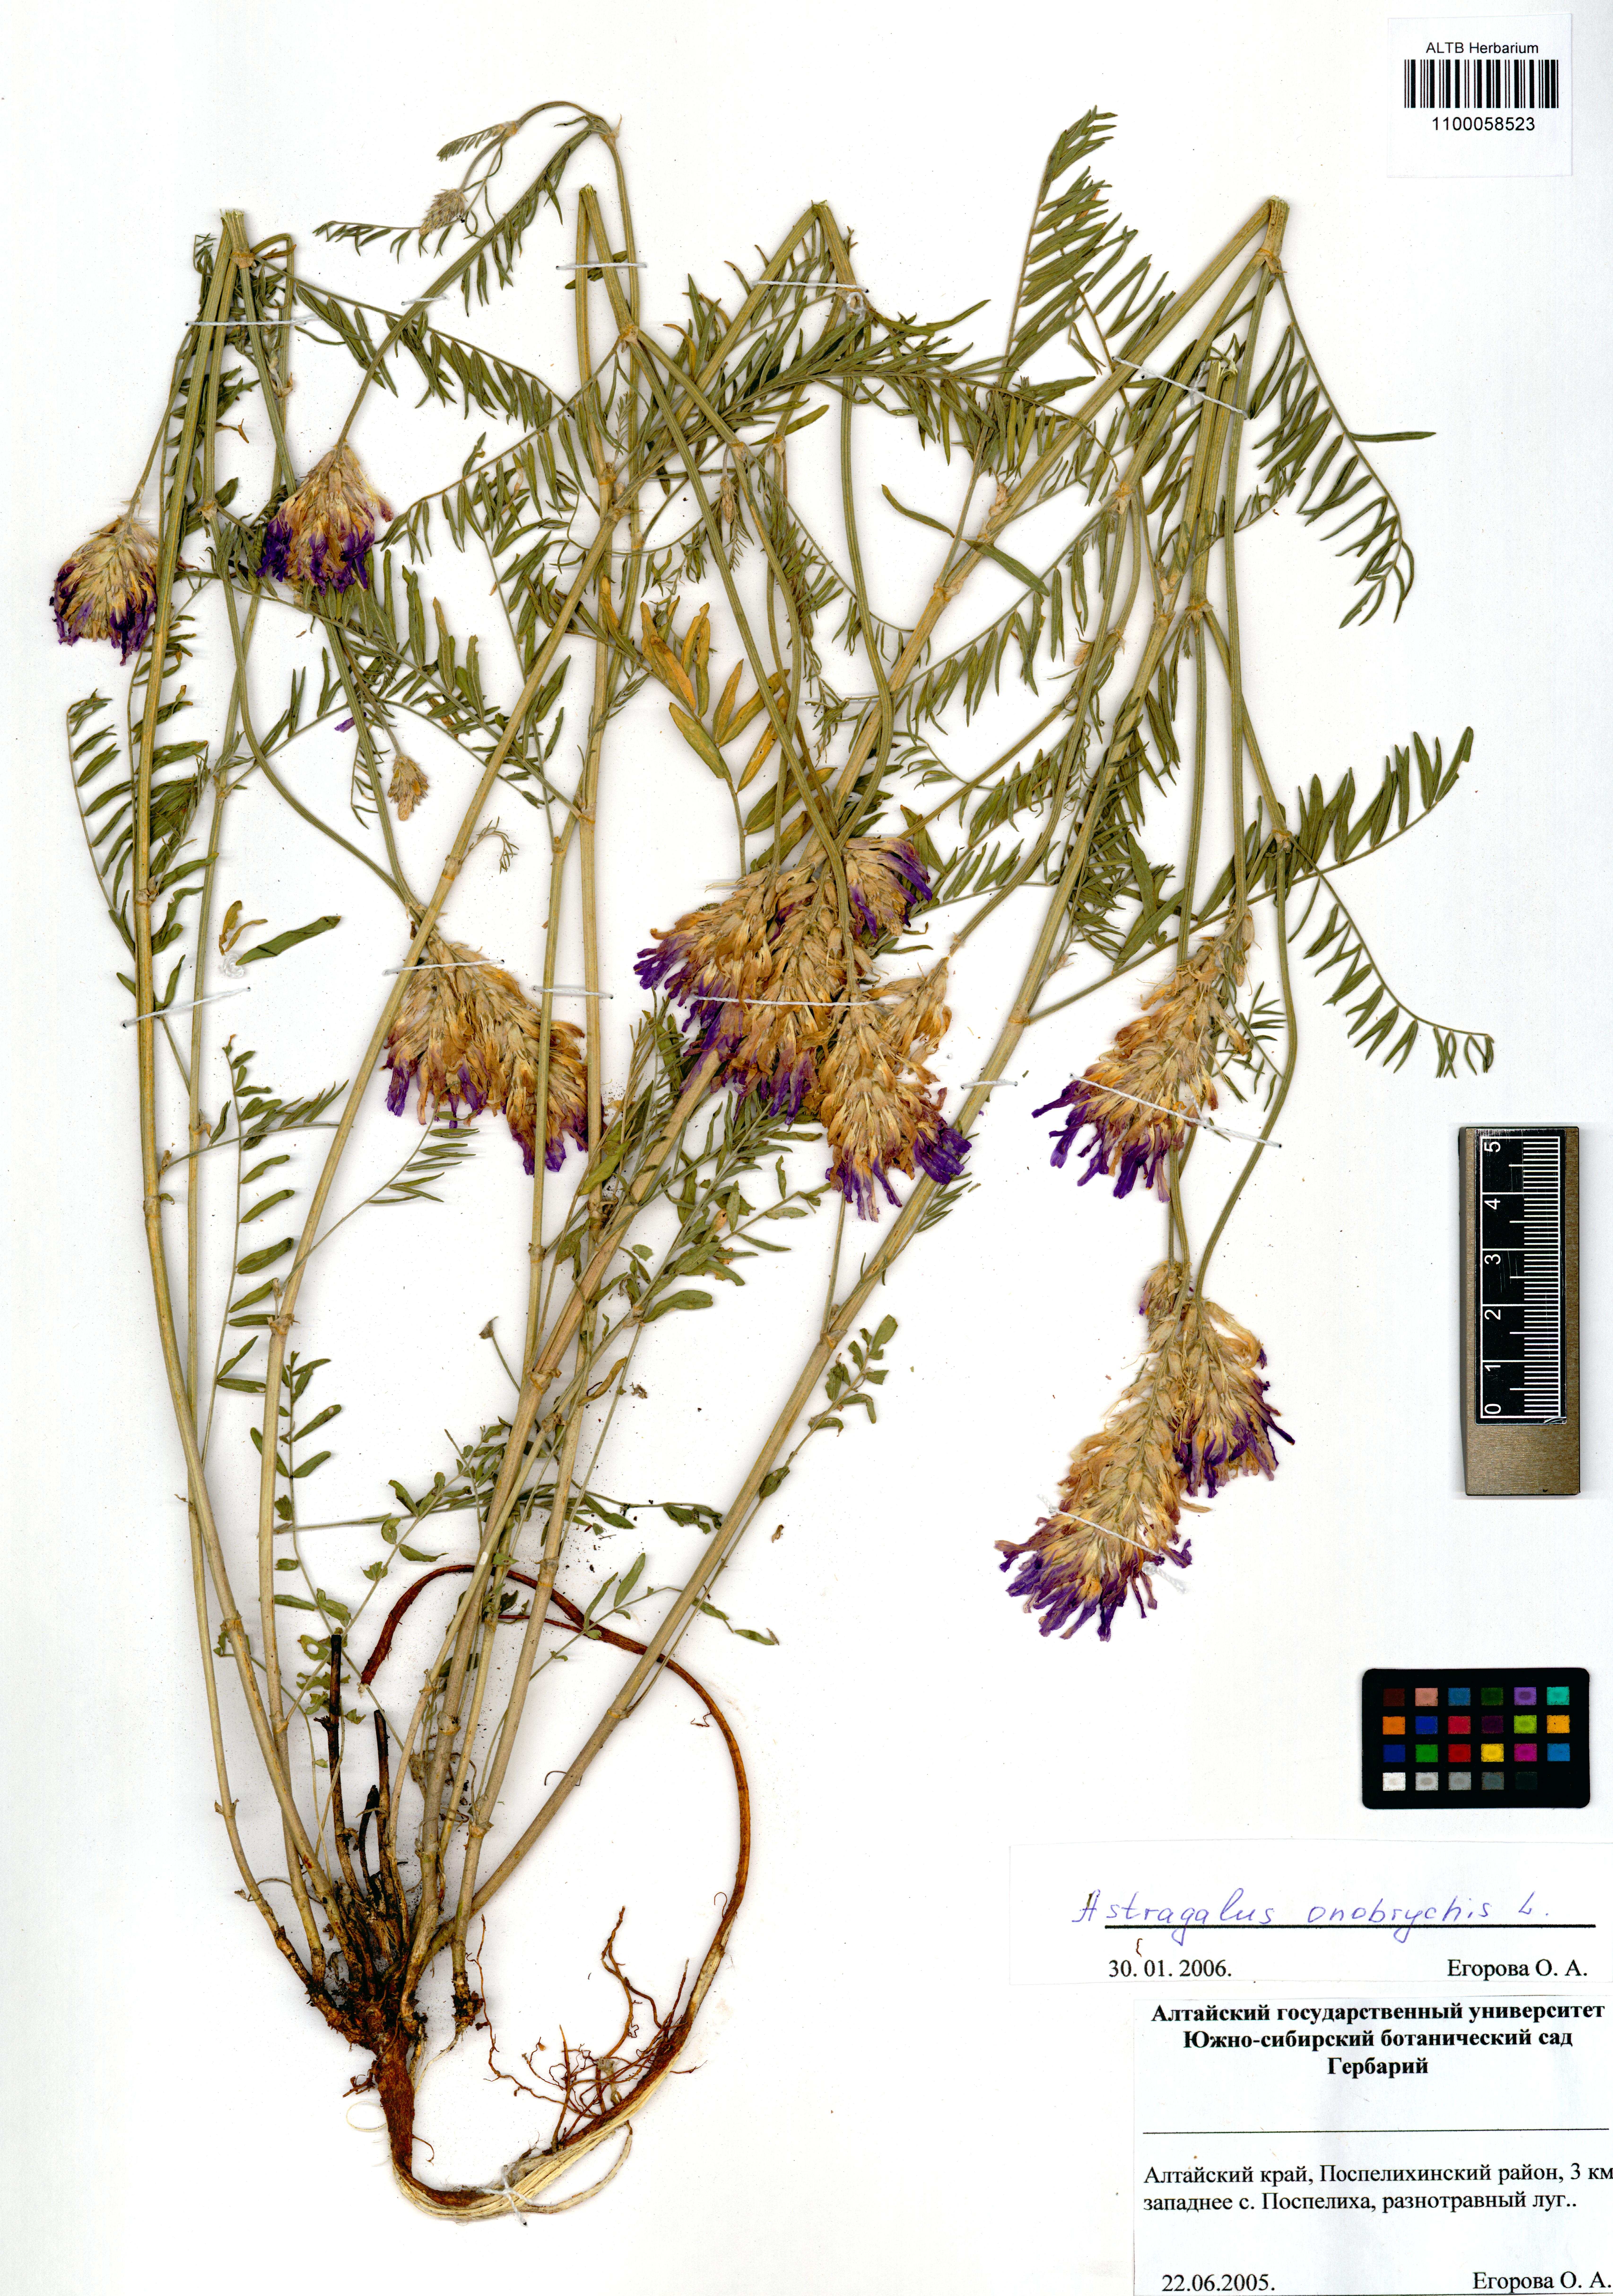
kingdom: Plantae
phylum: Tracheophyta
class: Magnoliopsida
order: Fabales
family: Fabaceae
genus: Astragalus
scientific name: Astragalus onobrychis
